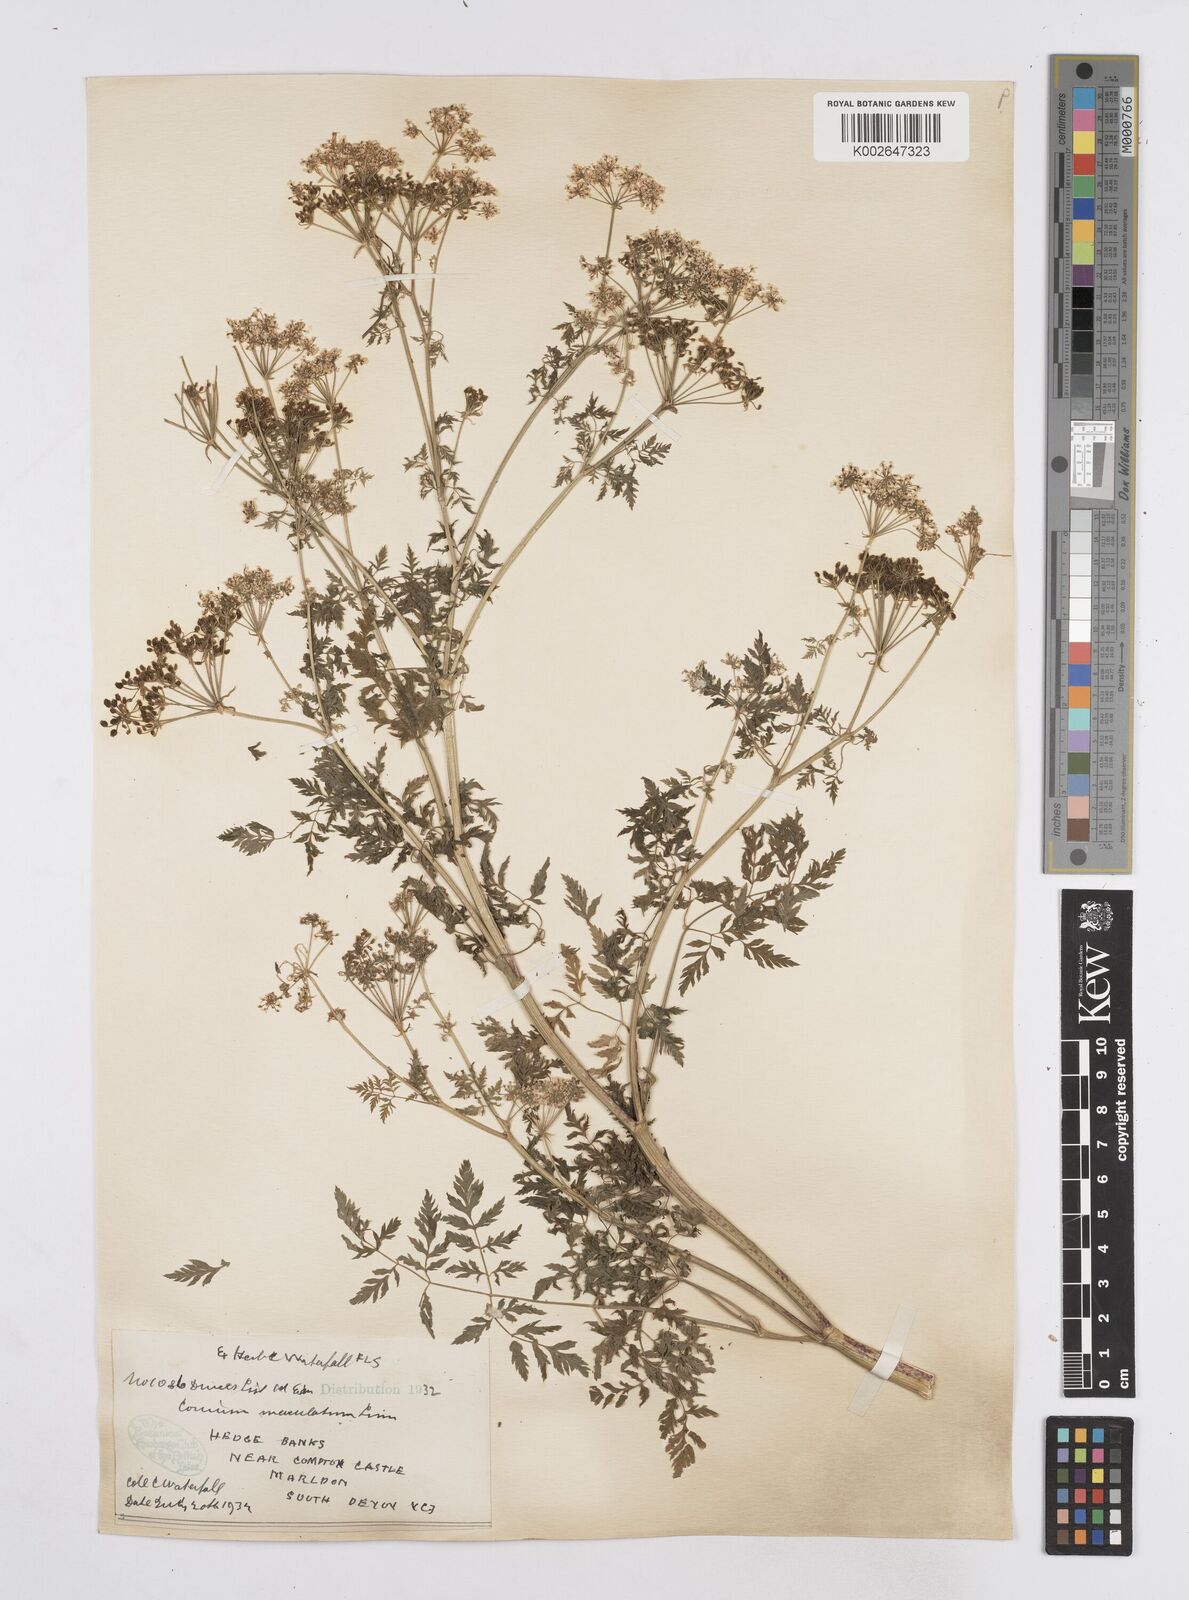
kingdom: Plantae
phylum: Tracheophyta
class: Magnoliopsida
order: Apiales
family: Apiaceae
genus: Conium
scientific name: Conium maculatum
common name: Hemlock
